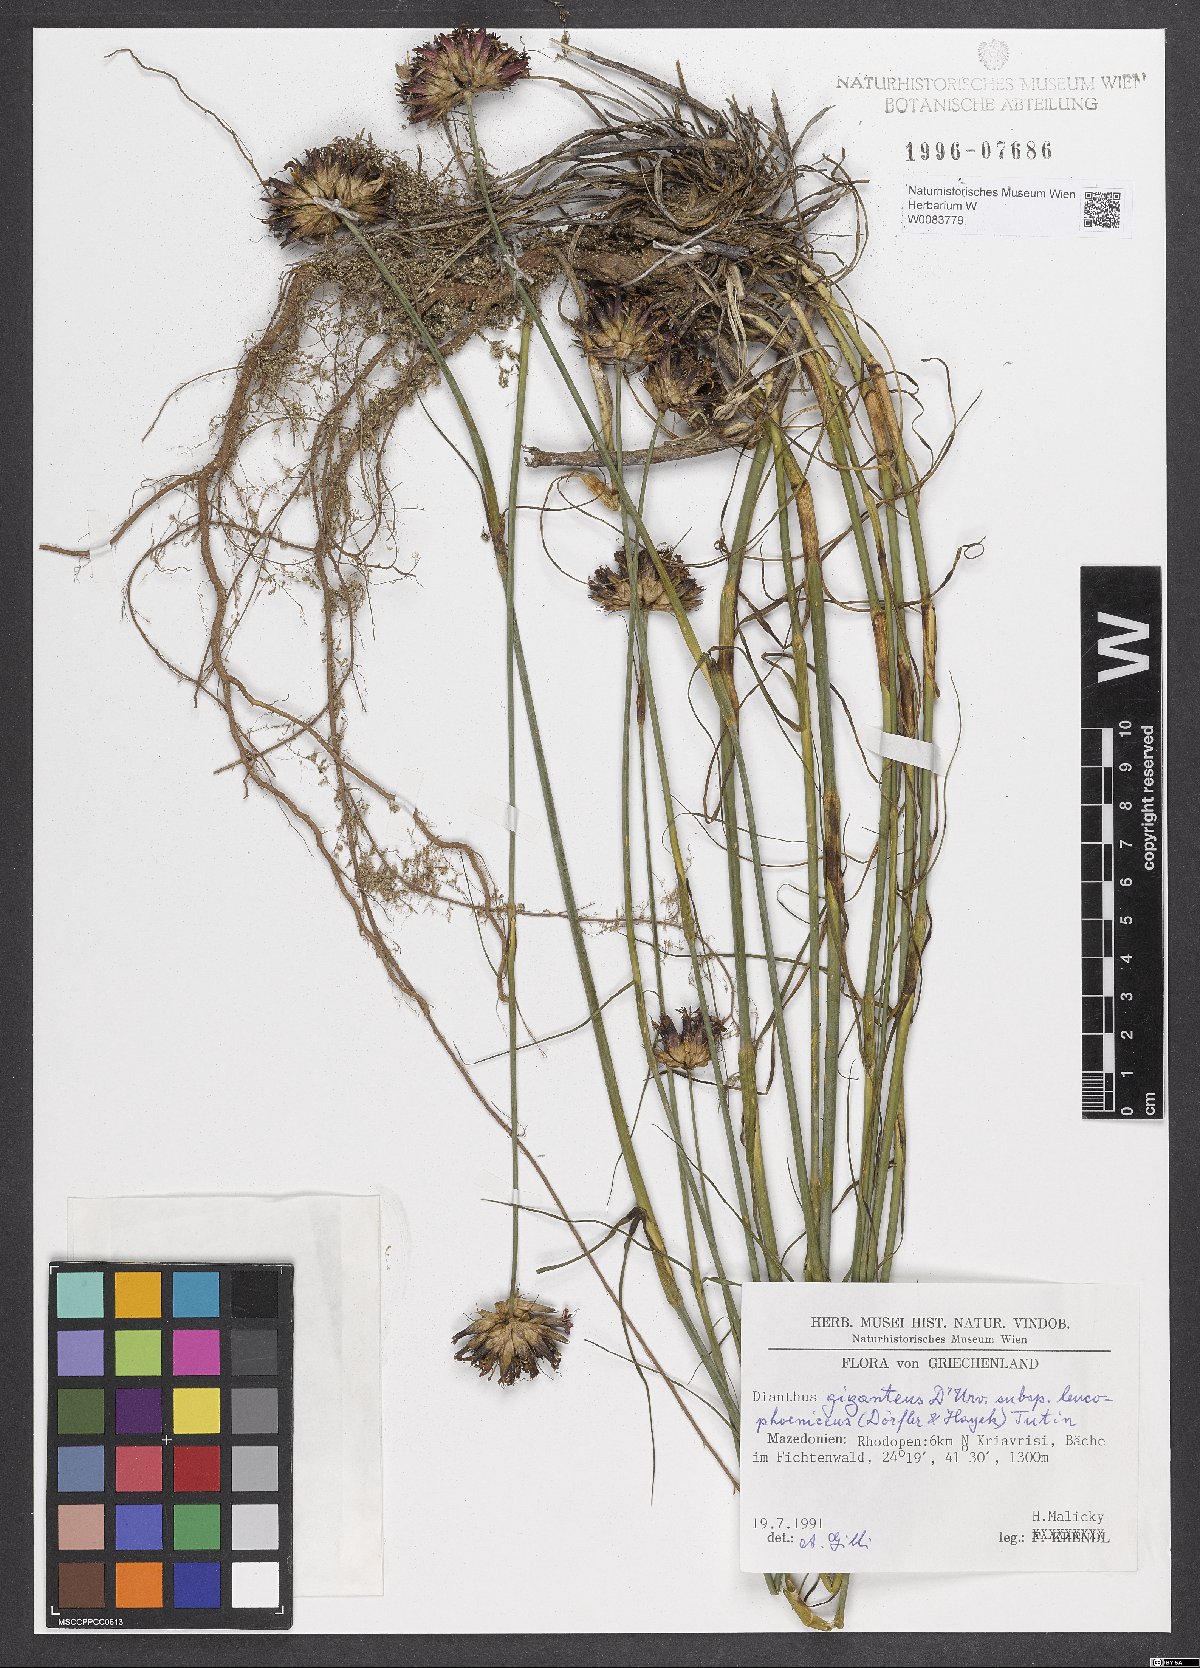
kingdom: Plantae
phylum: Tracheophyta
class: Magnoliopsida
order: Caryophyllales
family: Caryophyllaceae
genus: Dianthus
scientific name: Dianthus leucophoeniceus
